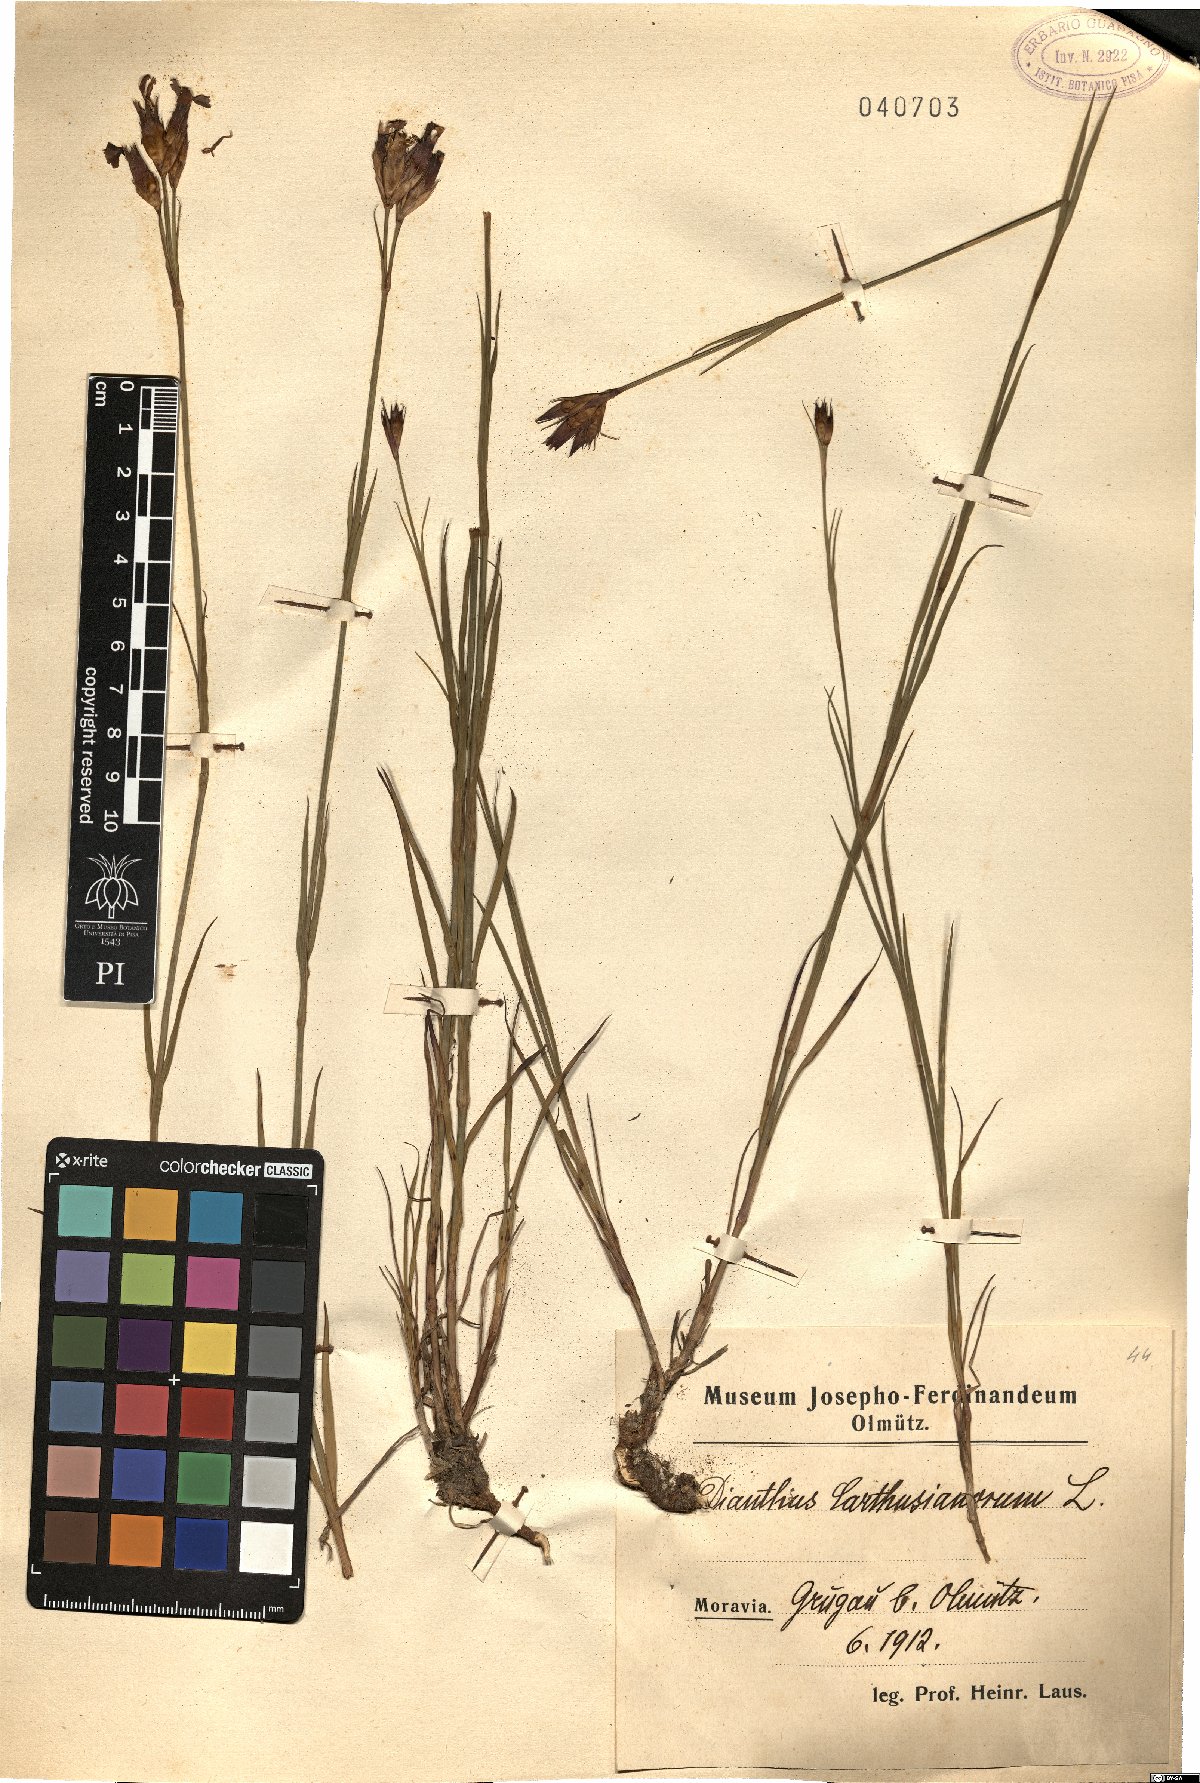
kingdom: Plantae
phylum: Tracheophyta
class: Magnoliopsida
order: Caryophyllales
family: Caryophyllaceae
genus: Dianthus
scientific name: Dianthus carthusianorum
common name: Carthusian pink
